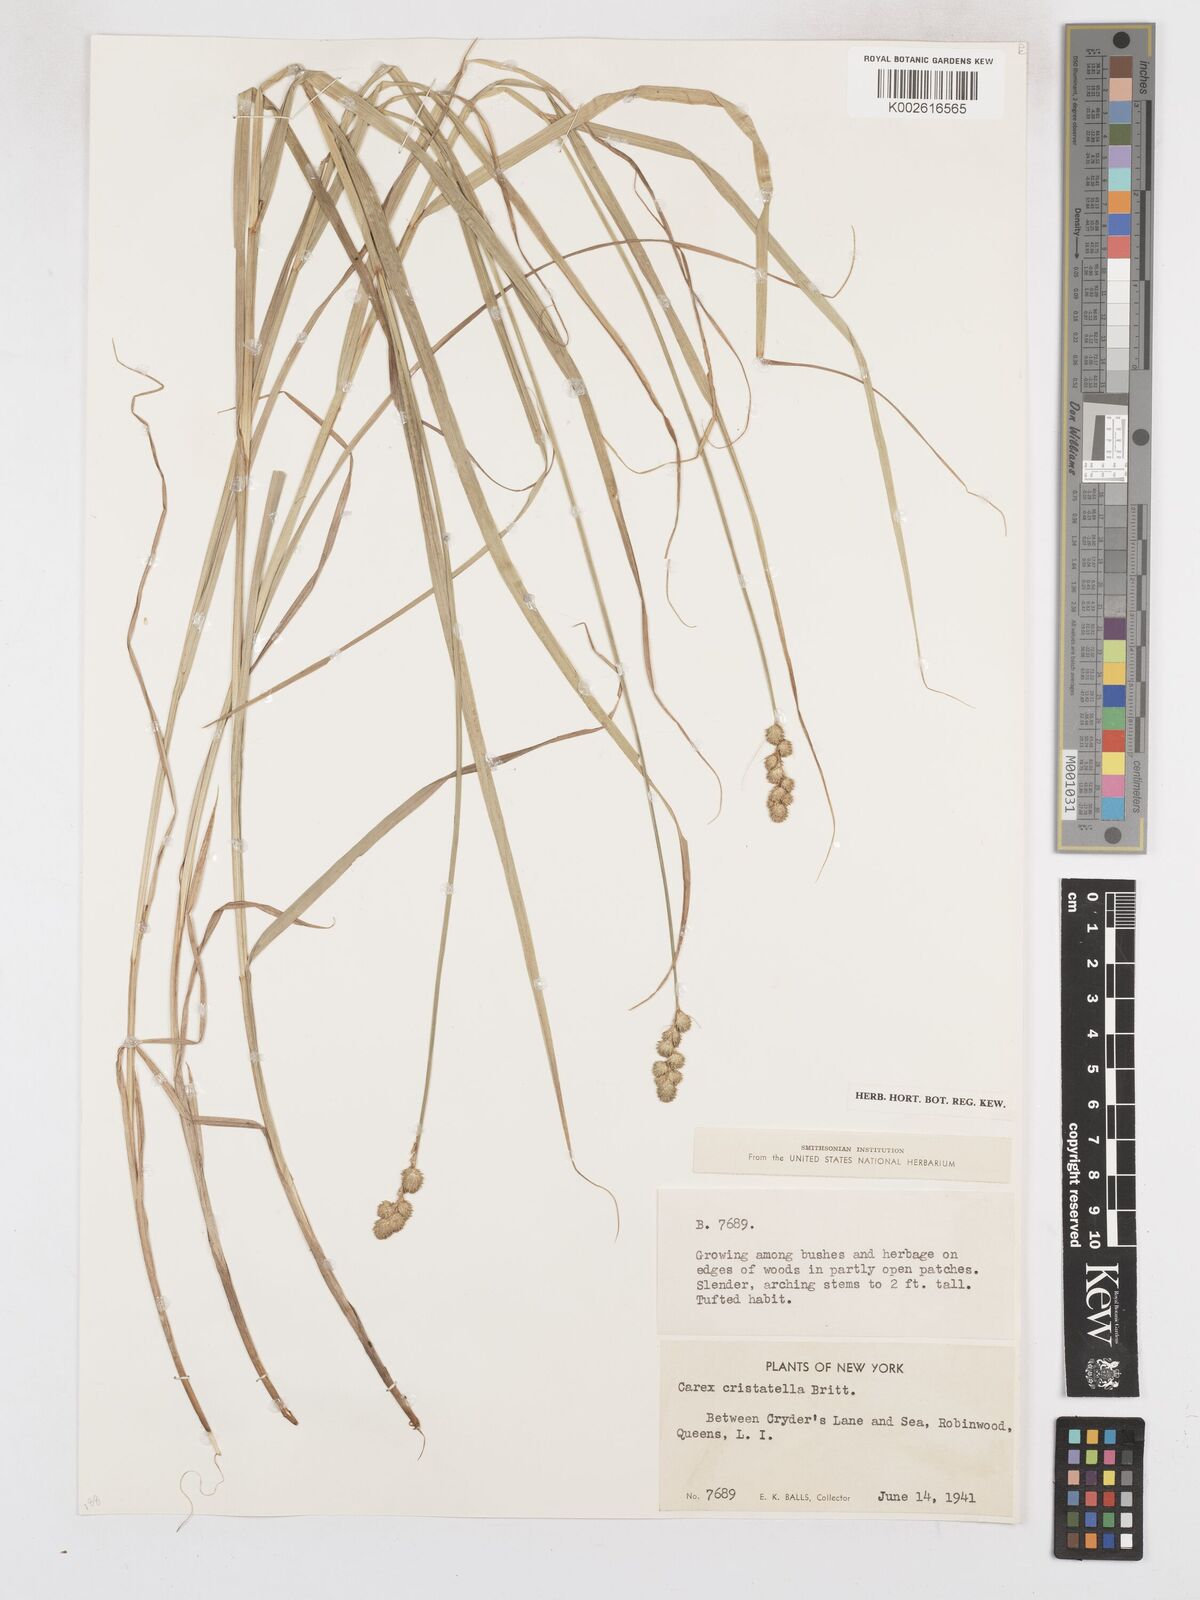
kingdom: Plantae
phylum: Tracheophyta
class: Liliopsida
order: Poales
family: Cyperaceae
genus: Carex
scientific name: Carex cristatella
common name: Crested oval sedge
